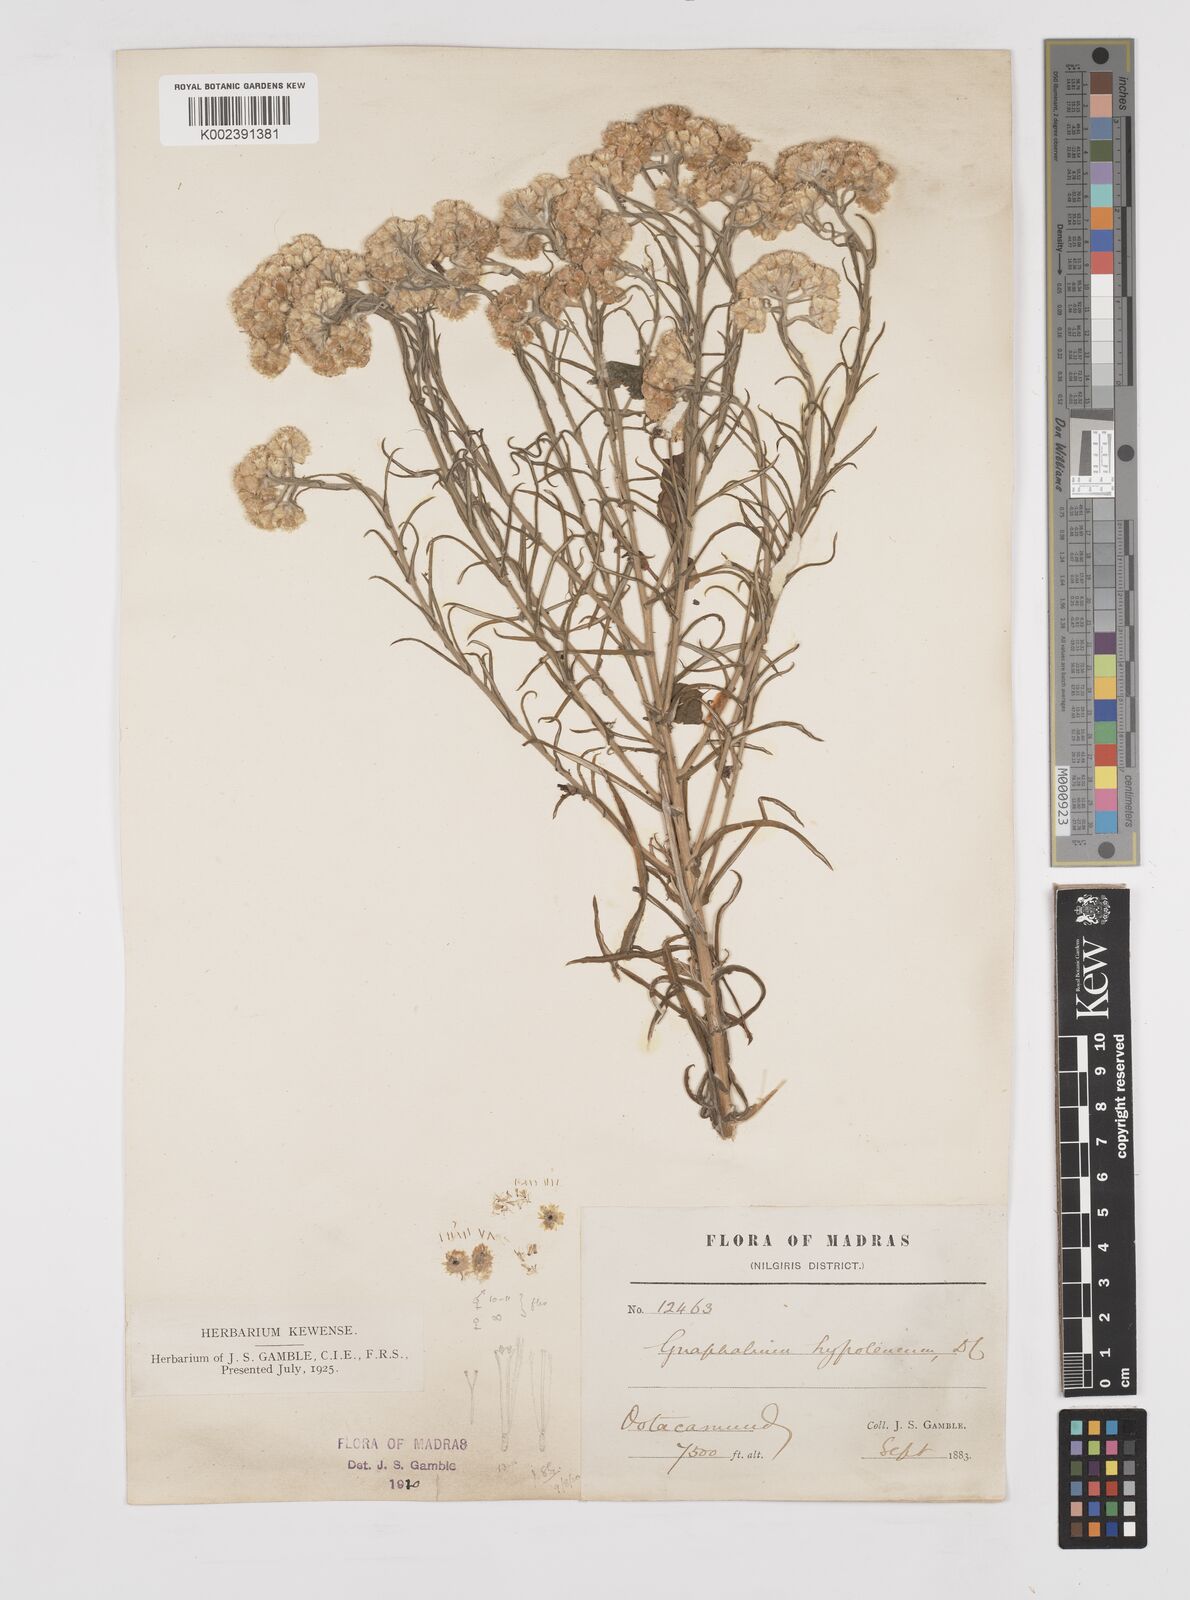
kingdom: Plantae
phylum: Tracheophyta
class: Magnoliopsida
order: Asterales
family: Asteraceae
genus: Pseudognaphalium
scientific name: Pseudognaphalium hypoleucum
